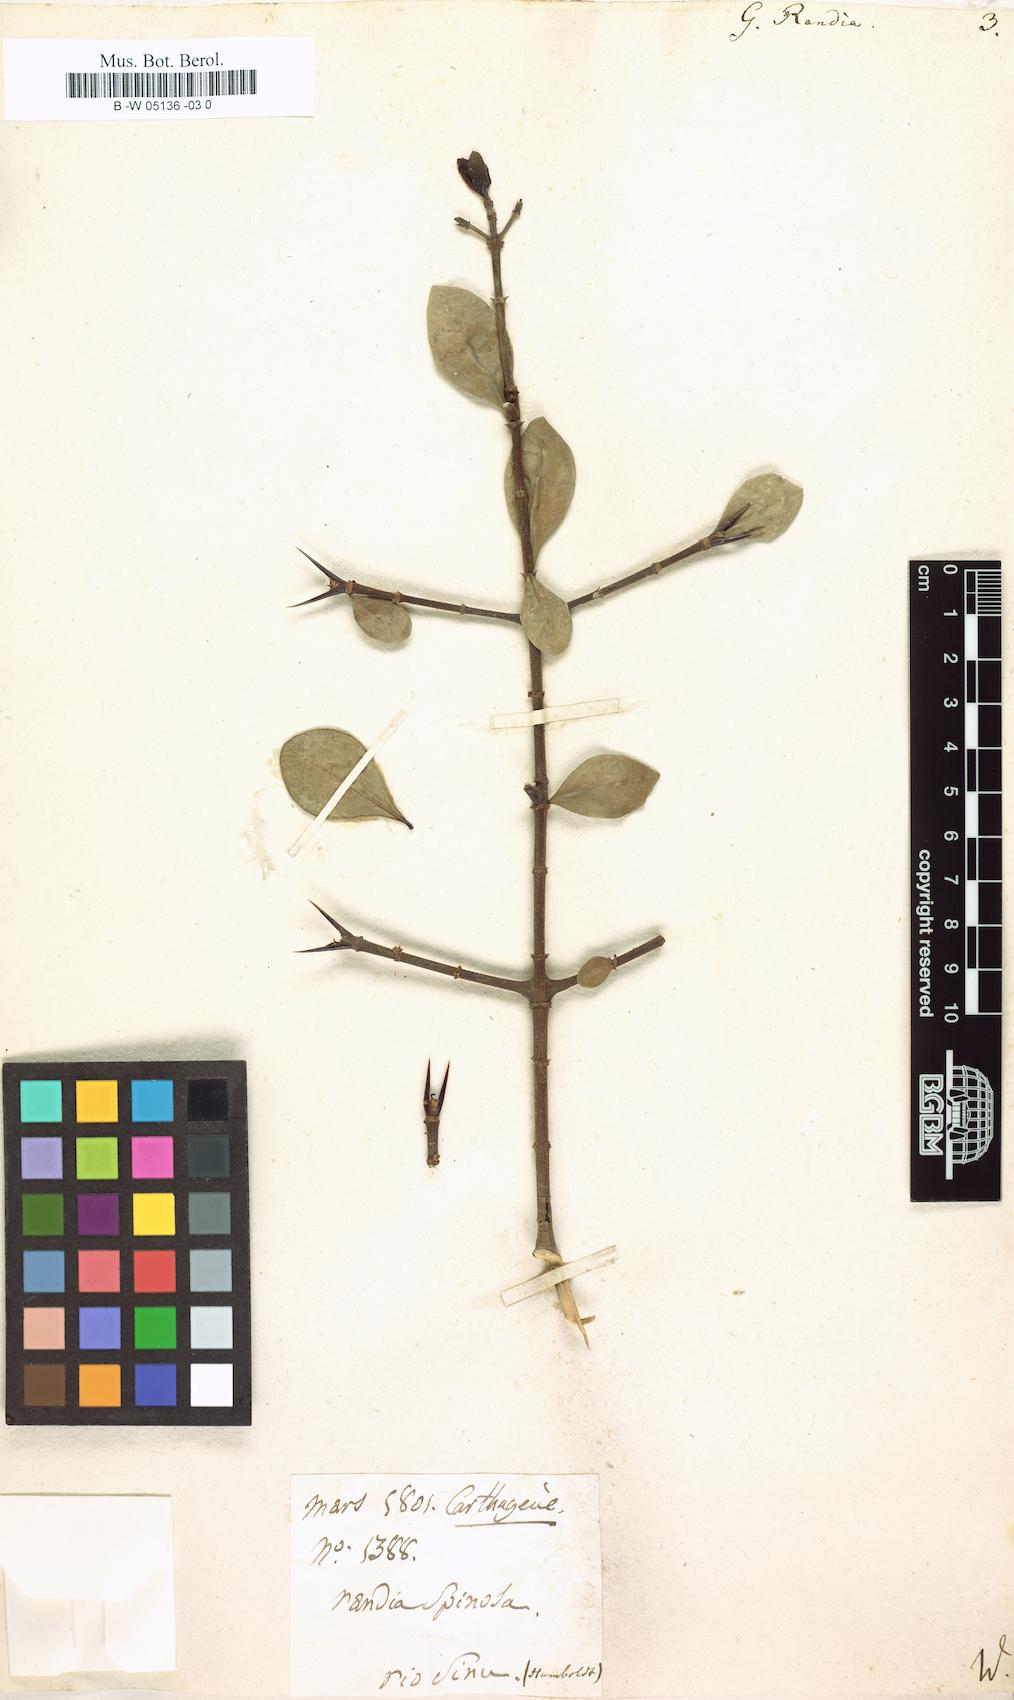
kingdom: Plantae
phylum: Tracheophyta
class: Magnoliopsida
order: Gentianales
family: Rubiaceae
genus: Randia
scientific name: Randia aculeata
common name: Inkberry
